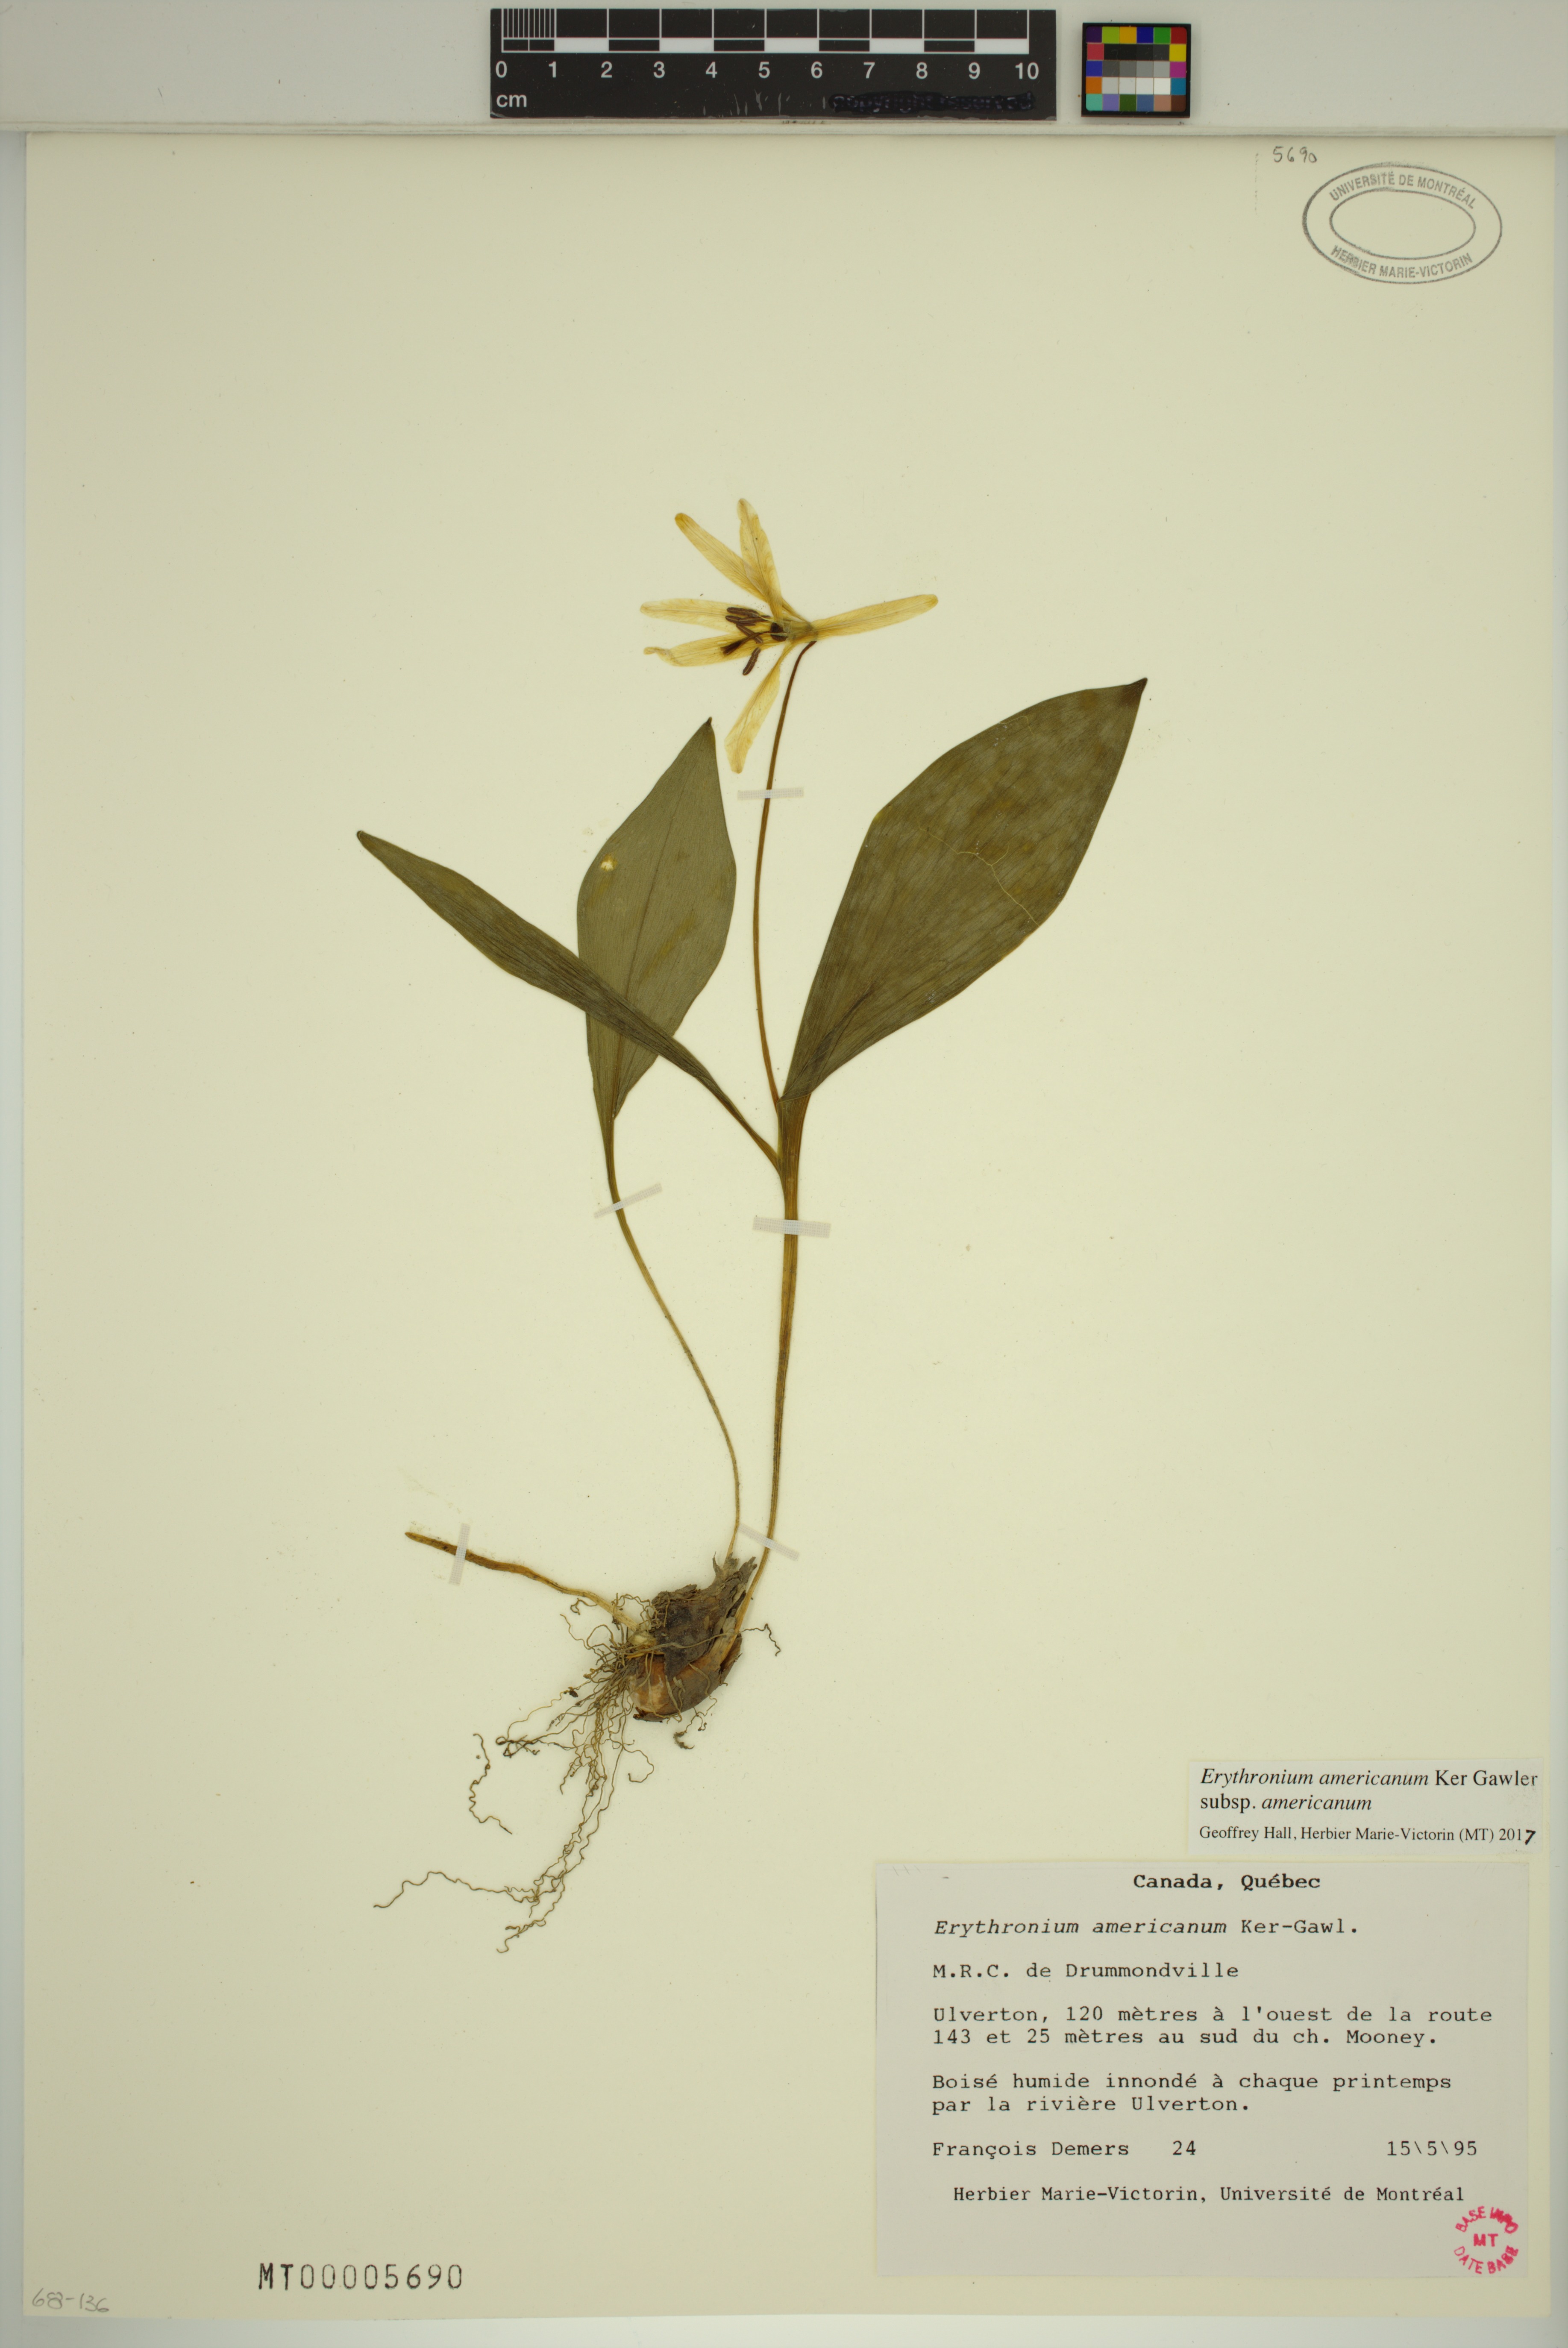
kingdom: Plantae
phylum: Tracheophyta
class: Liliopsida
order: Liliales
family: Liliaceae
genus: Erythronium
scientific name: Erythronium americanum
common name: Yellow adder's-tongue
